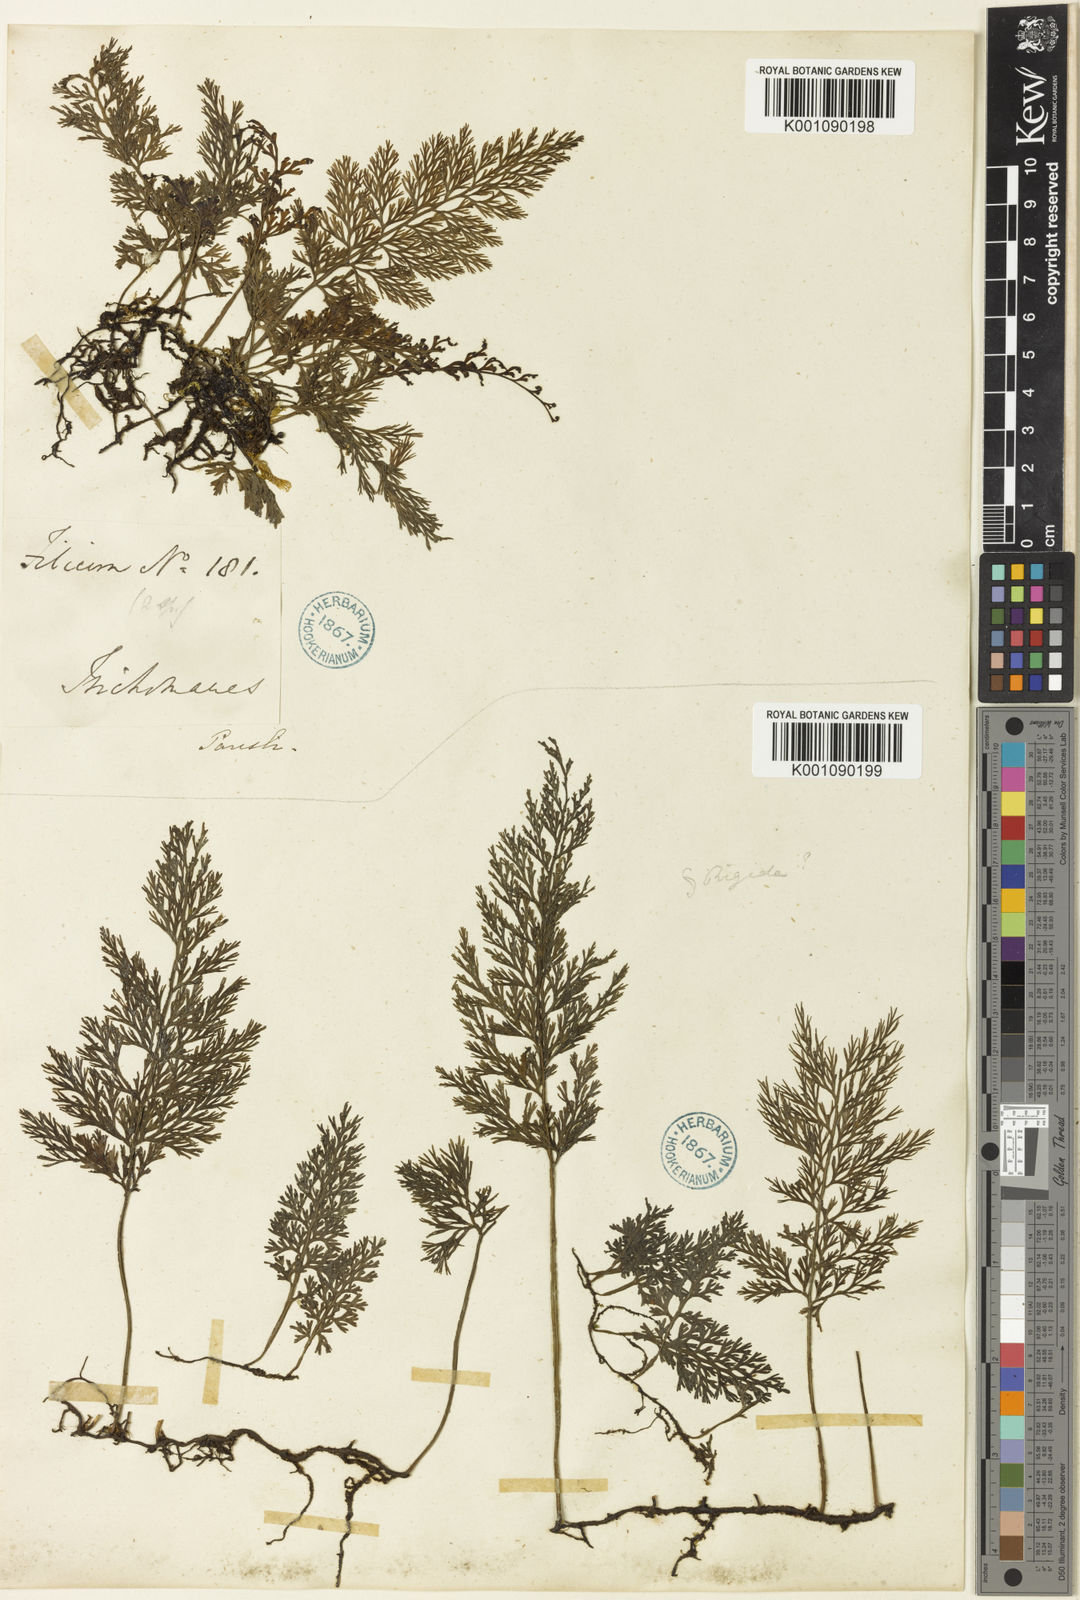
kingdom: Plantae
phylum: Tracheophyta
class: Polypodiopsida
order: Hymenophyllales
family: Hymenophyllaceae
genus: Vandenboschia
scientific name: Vandenboschia birmanica
